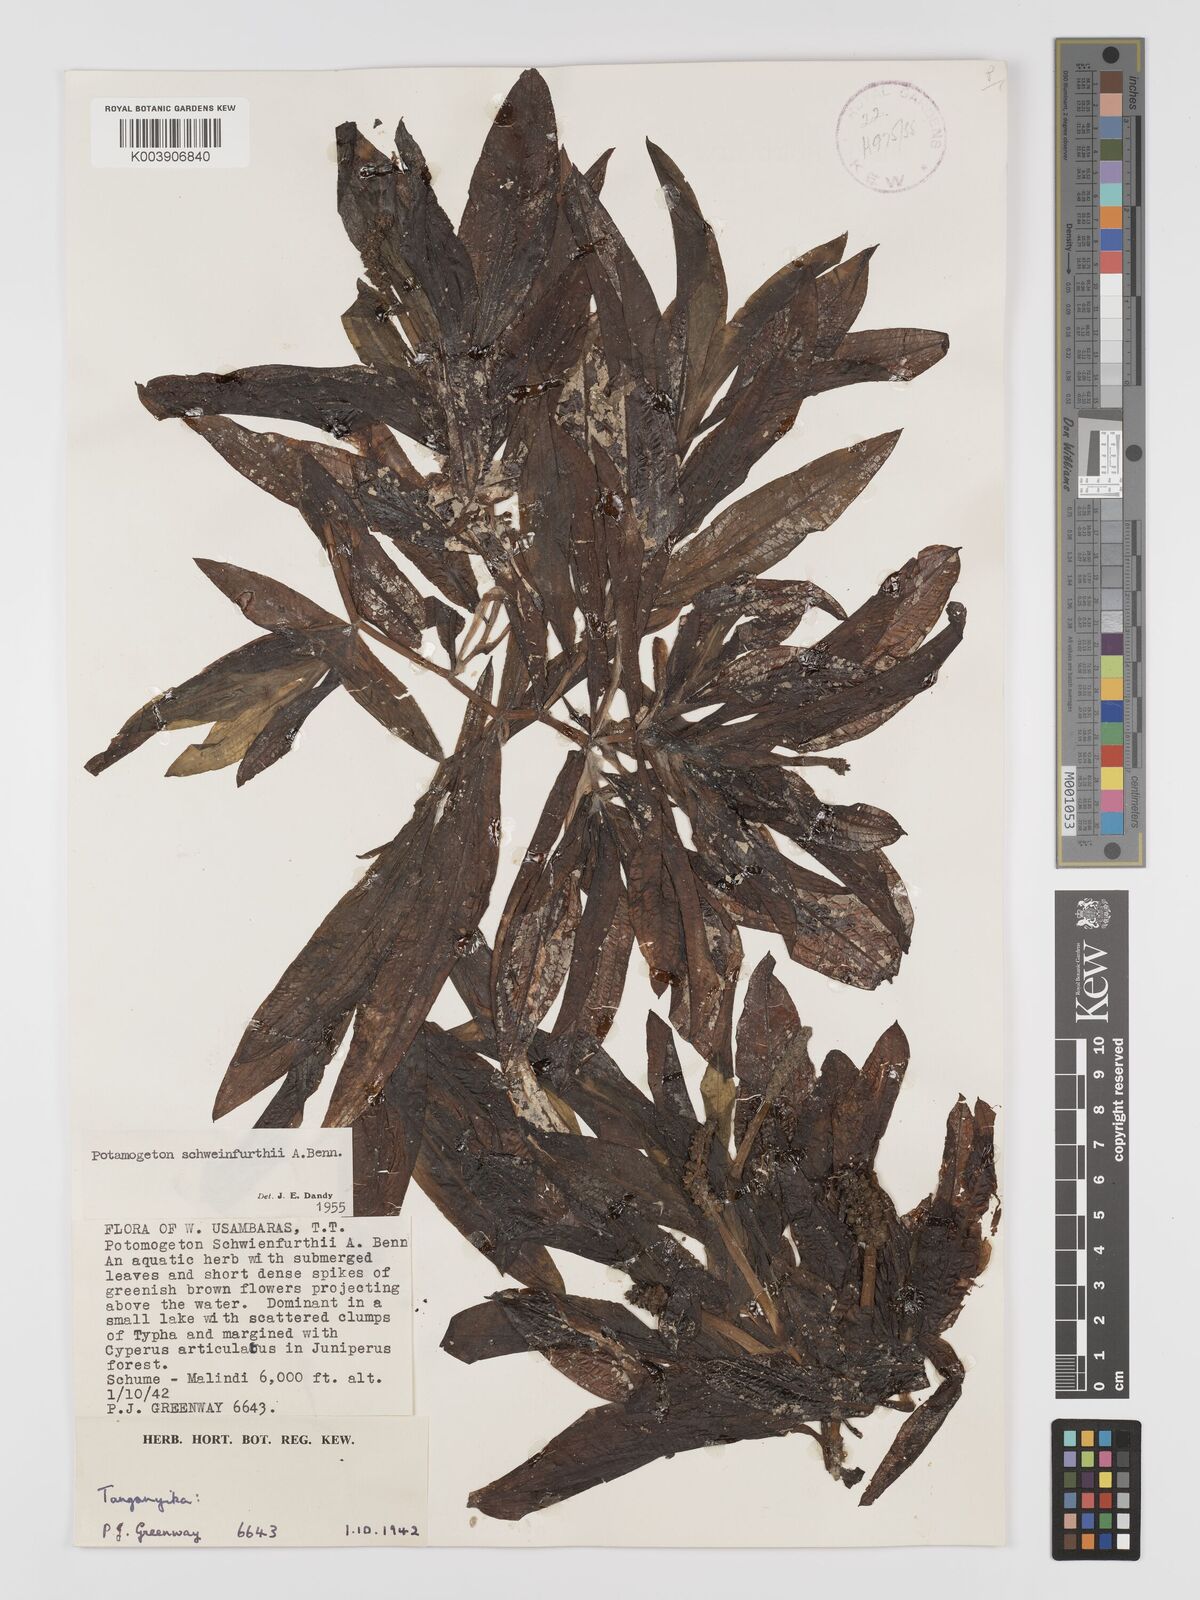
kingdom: Plantae
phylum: Tracheophyta
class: Liliopsida
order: Alismatales
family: Potamogetonaceae
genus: Potamogeton
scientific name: Potamogeton schweinfurthii
